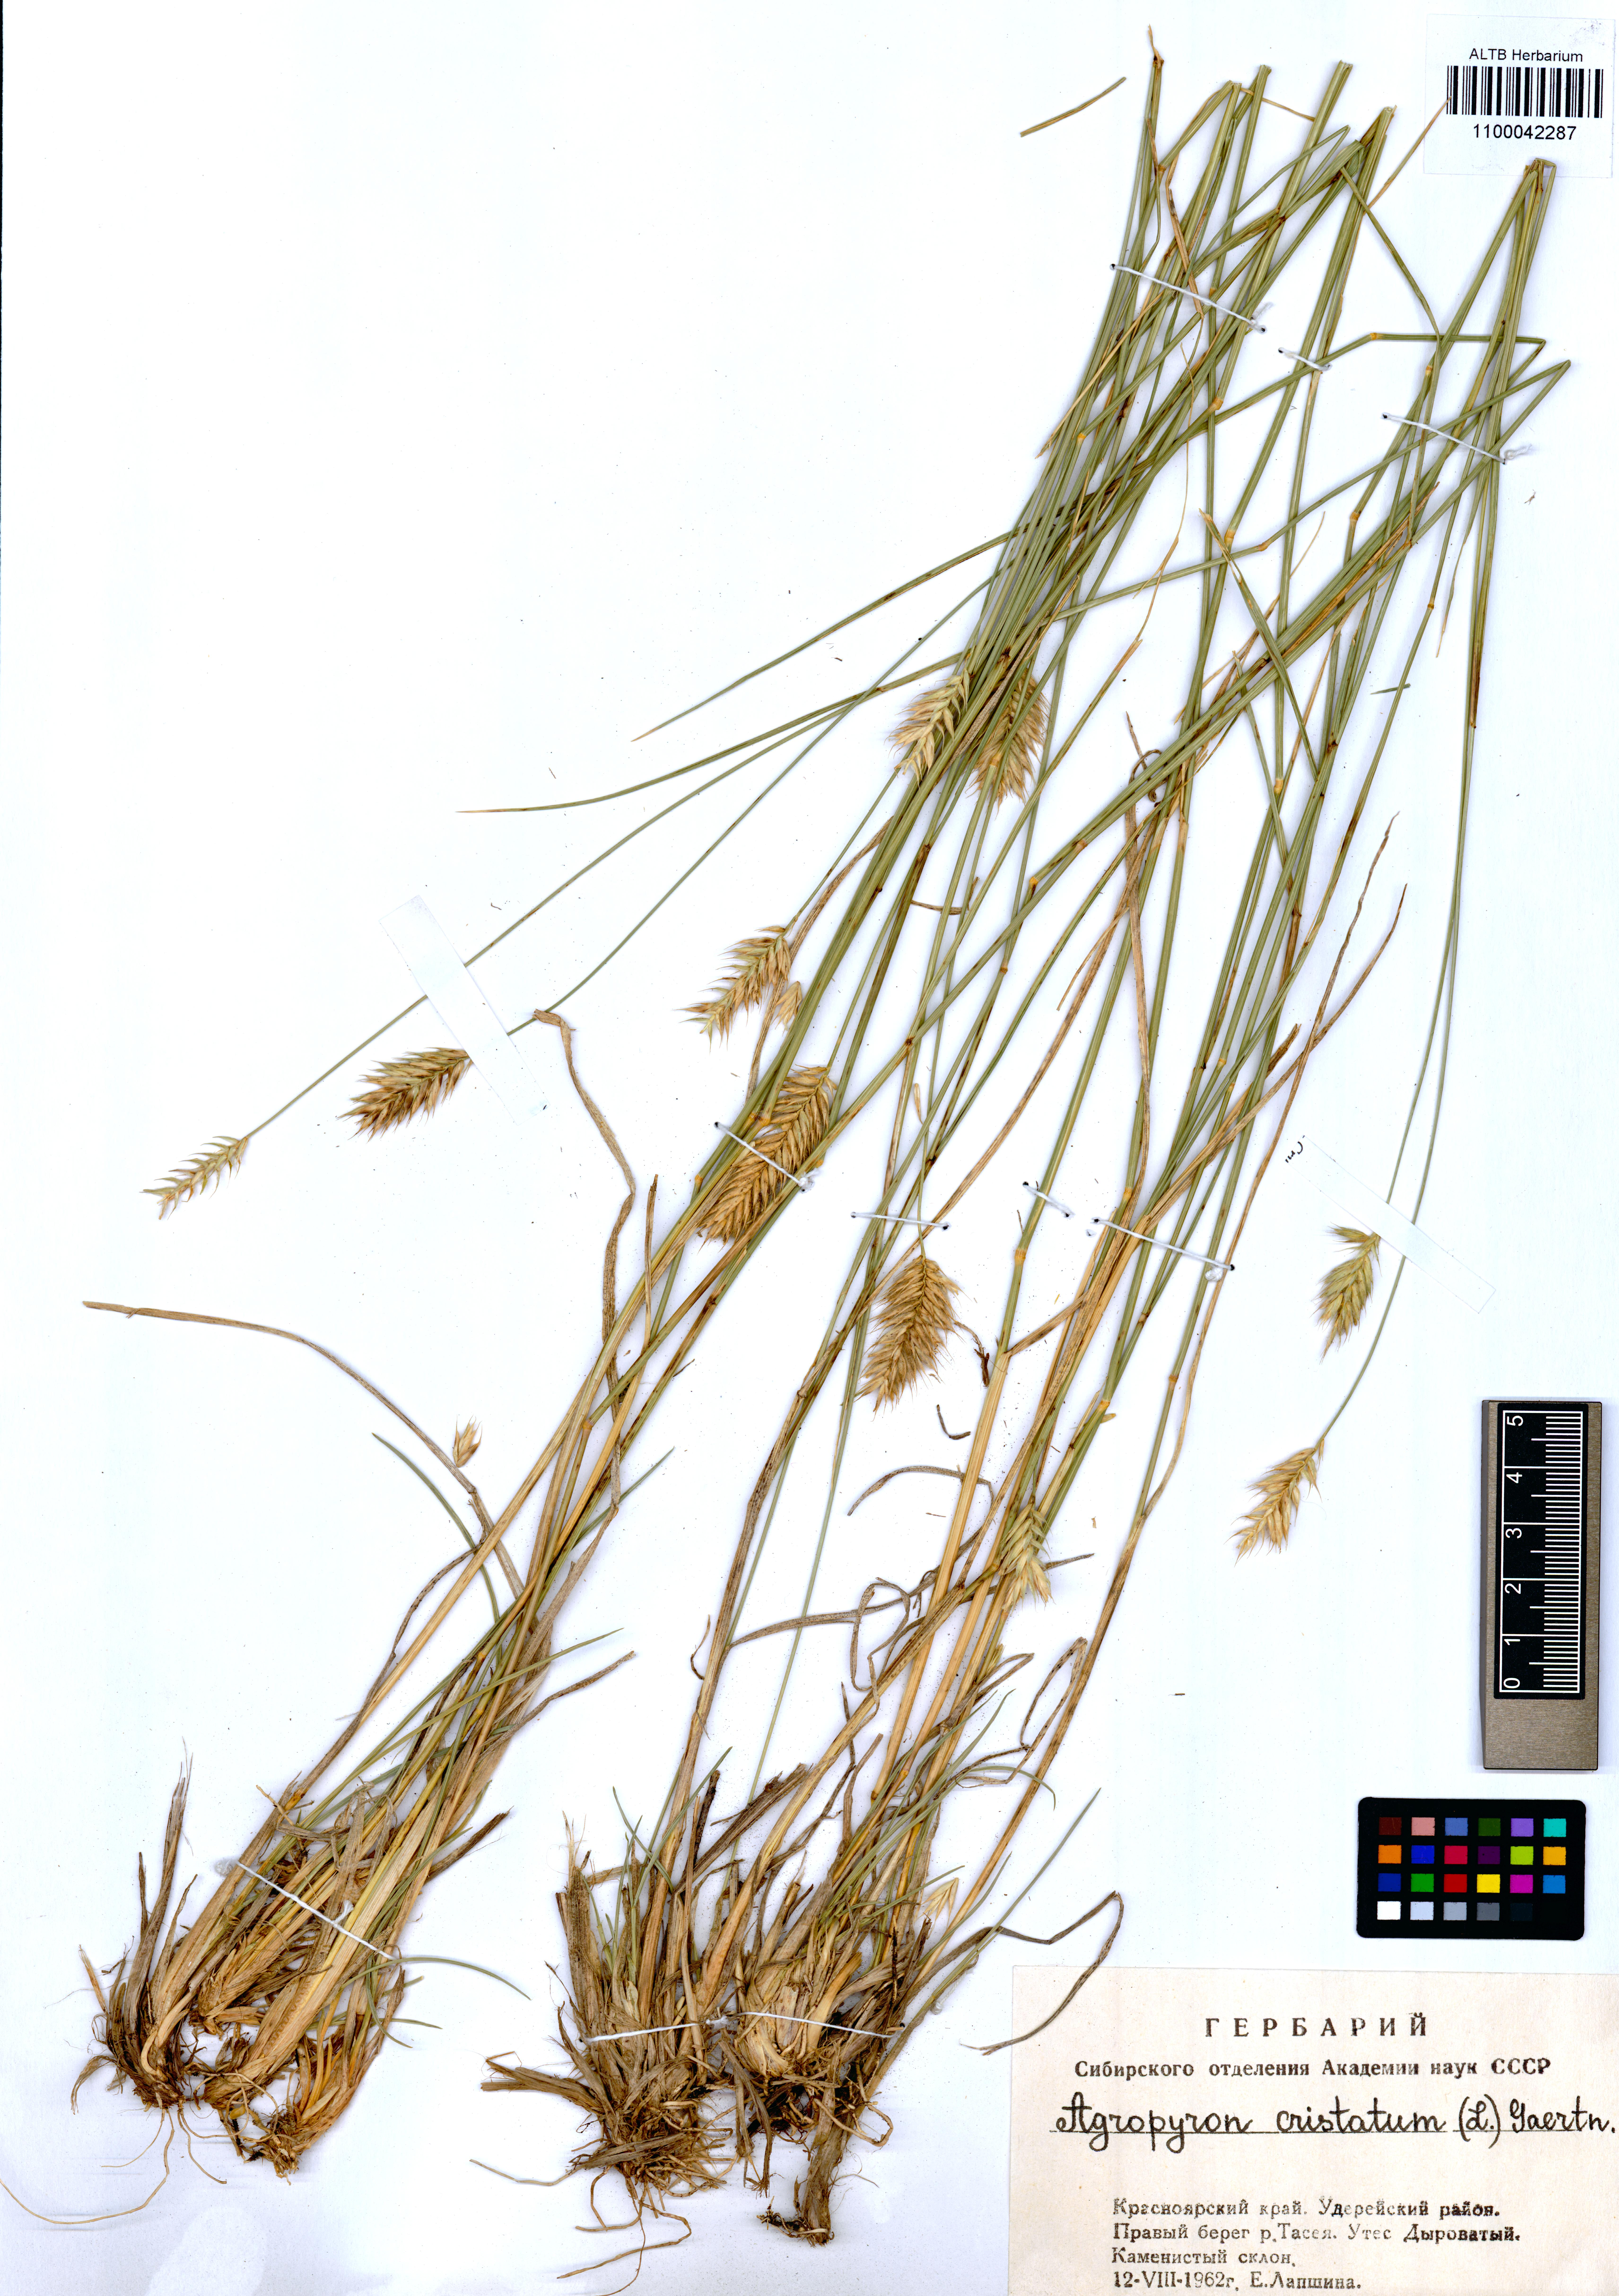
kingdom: Plantae
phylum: Tracheophyta
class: Liliopsida
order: Poales
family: Poaceae
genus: Agropyron
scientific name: Agropyron cristatum
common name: Crested wheatgrass
